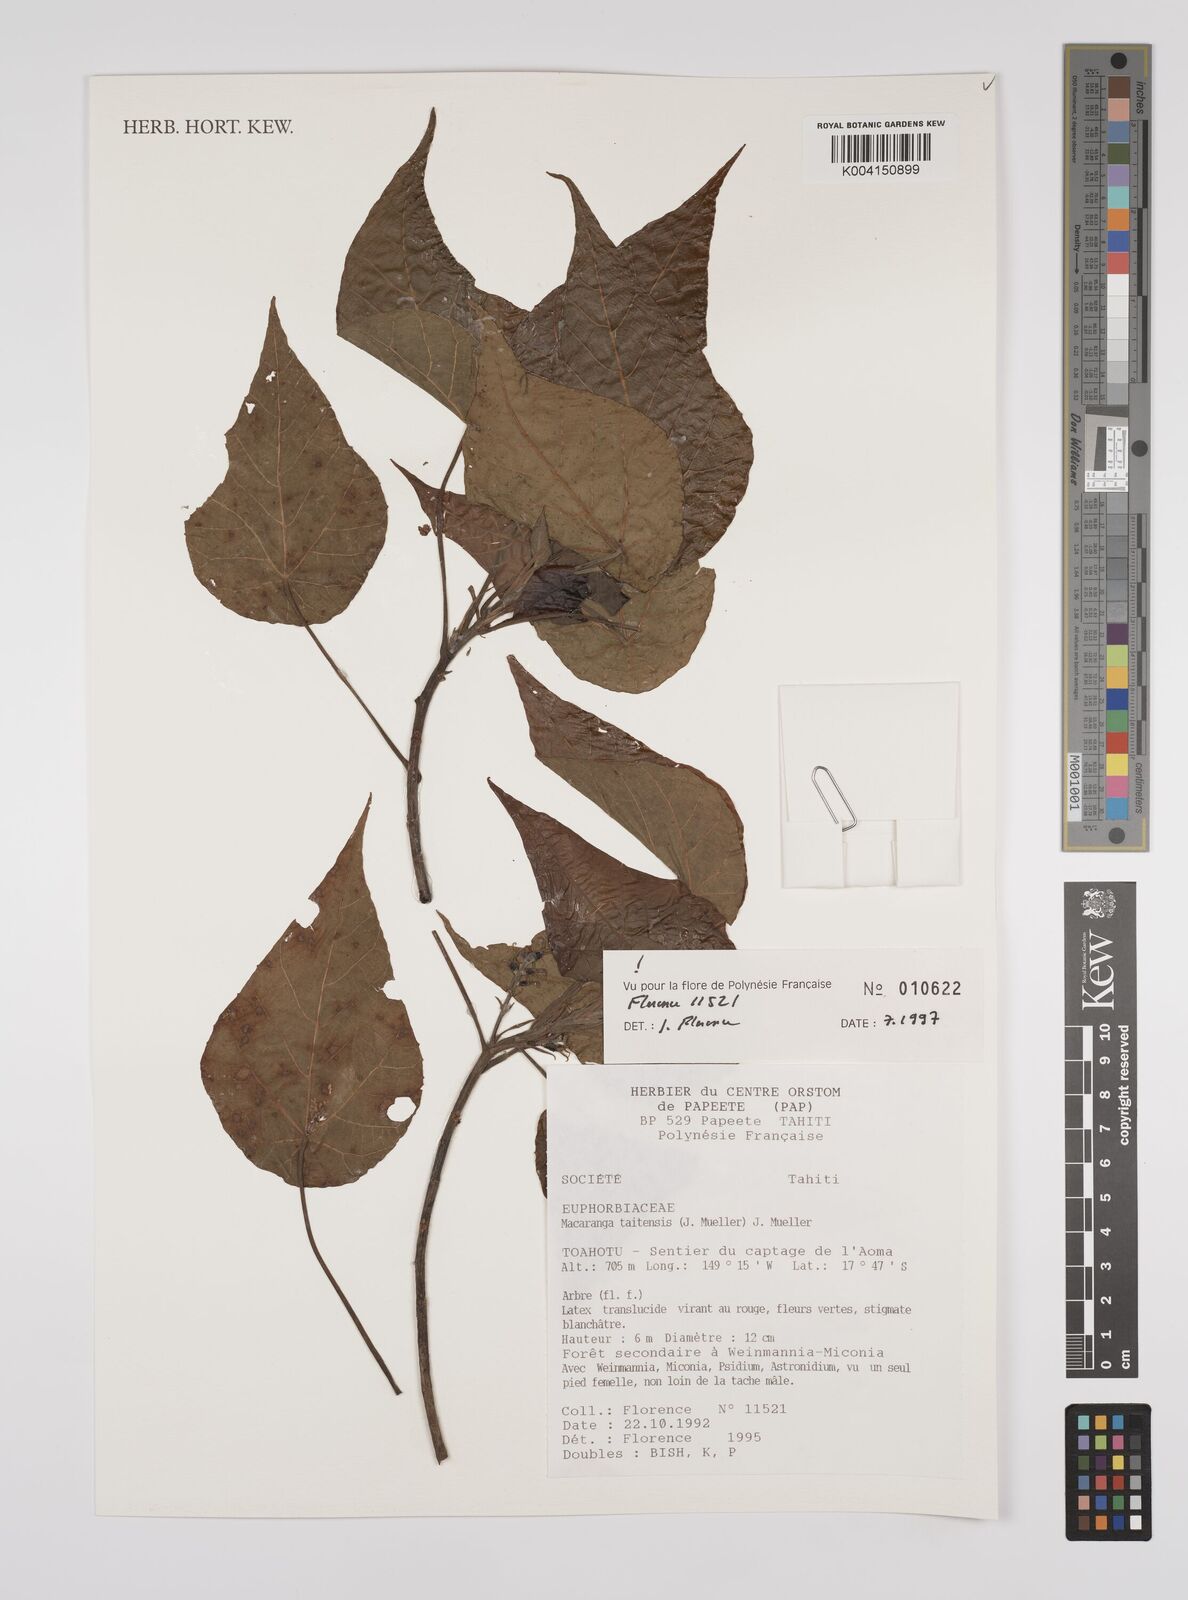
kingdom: Plantae
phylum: Tracheophyta
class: Magnoliopsida
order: Malpighiales
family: Euphorbiaceae
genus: Macaranga
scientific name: Macaranga taitensis
